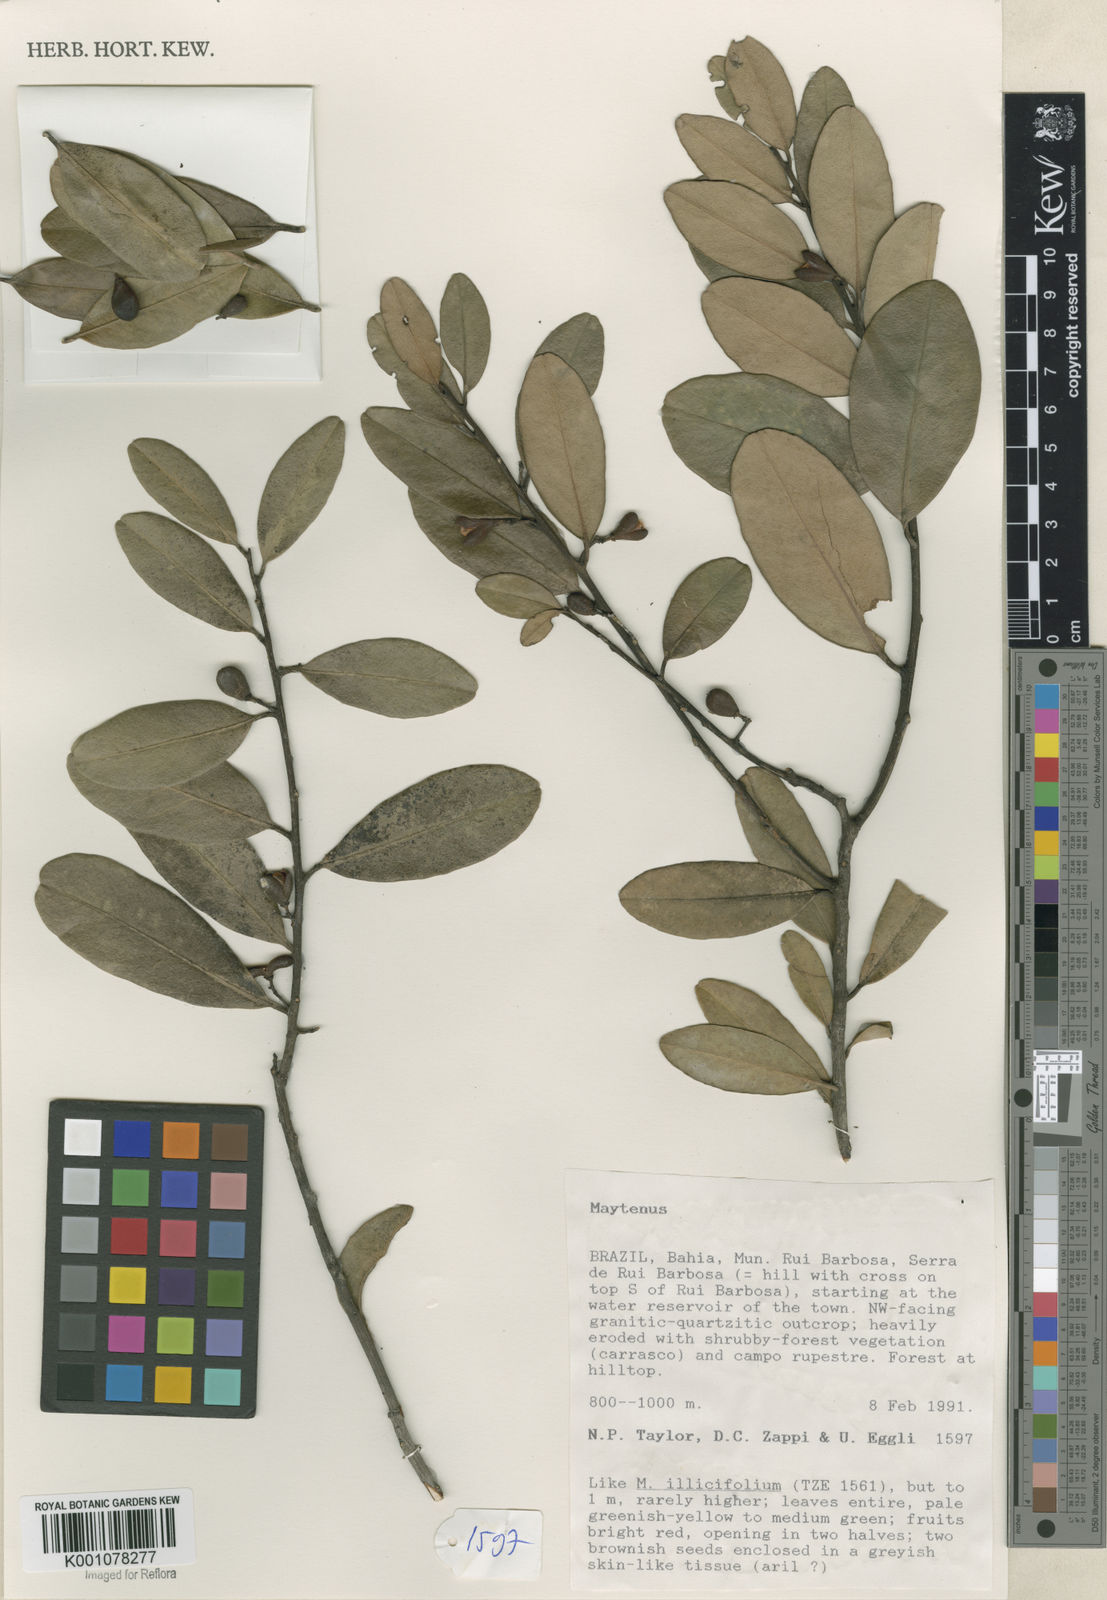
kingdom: Plantae
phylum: Tracheophyta
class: Magnoliopsida
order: Celastrales
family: Celastraceae
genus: Maytenus
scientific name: Maytenus
